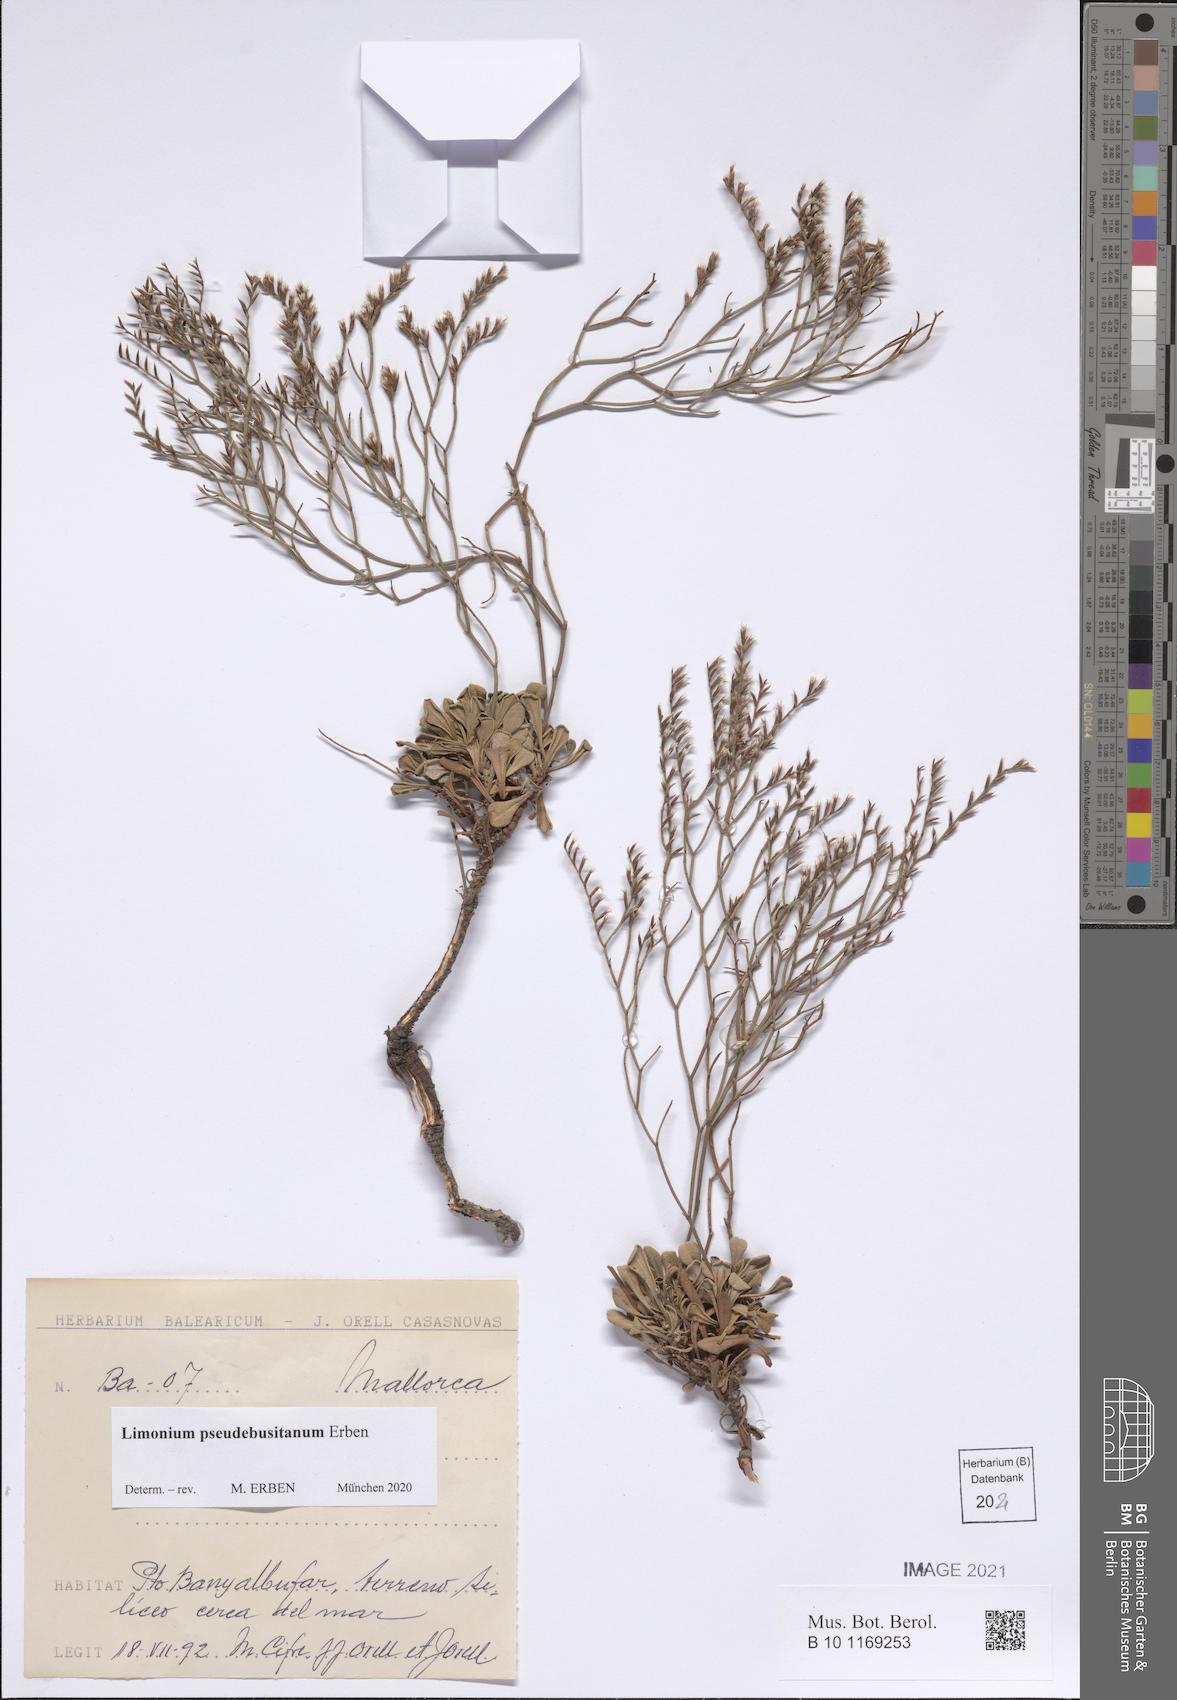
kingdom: Plantae
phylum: Tracheophyta
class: Magnoliopsida
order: Caryophyllales
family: Plumbaginaceae
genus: Limonium
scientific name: Limonium pseudebusitanum
